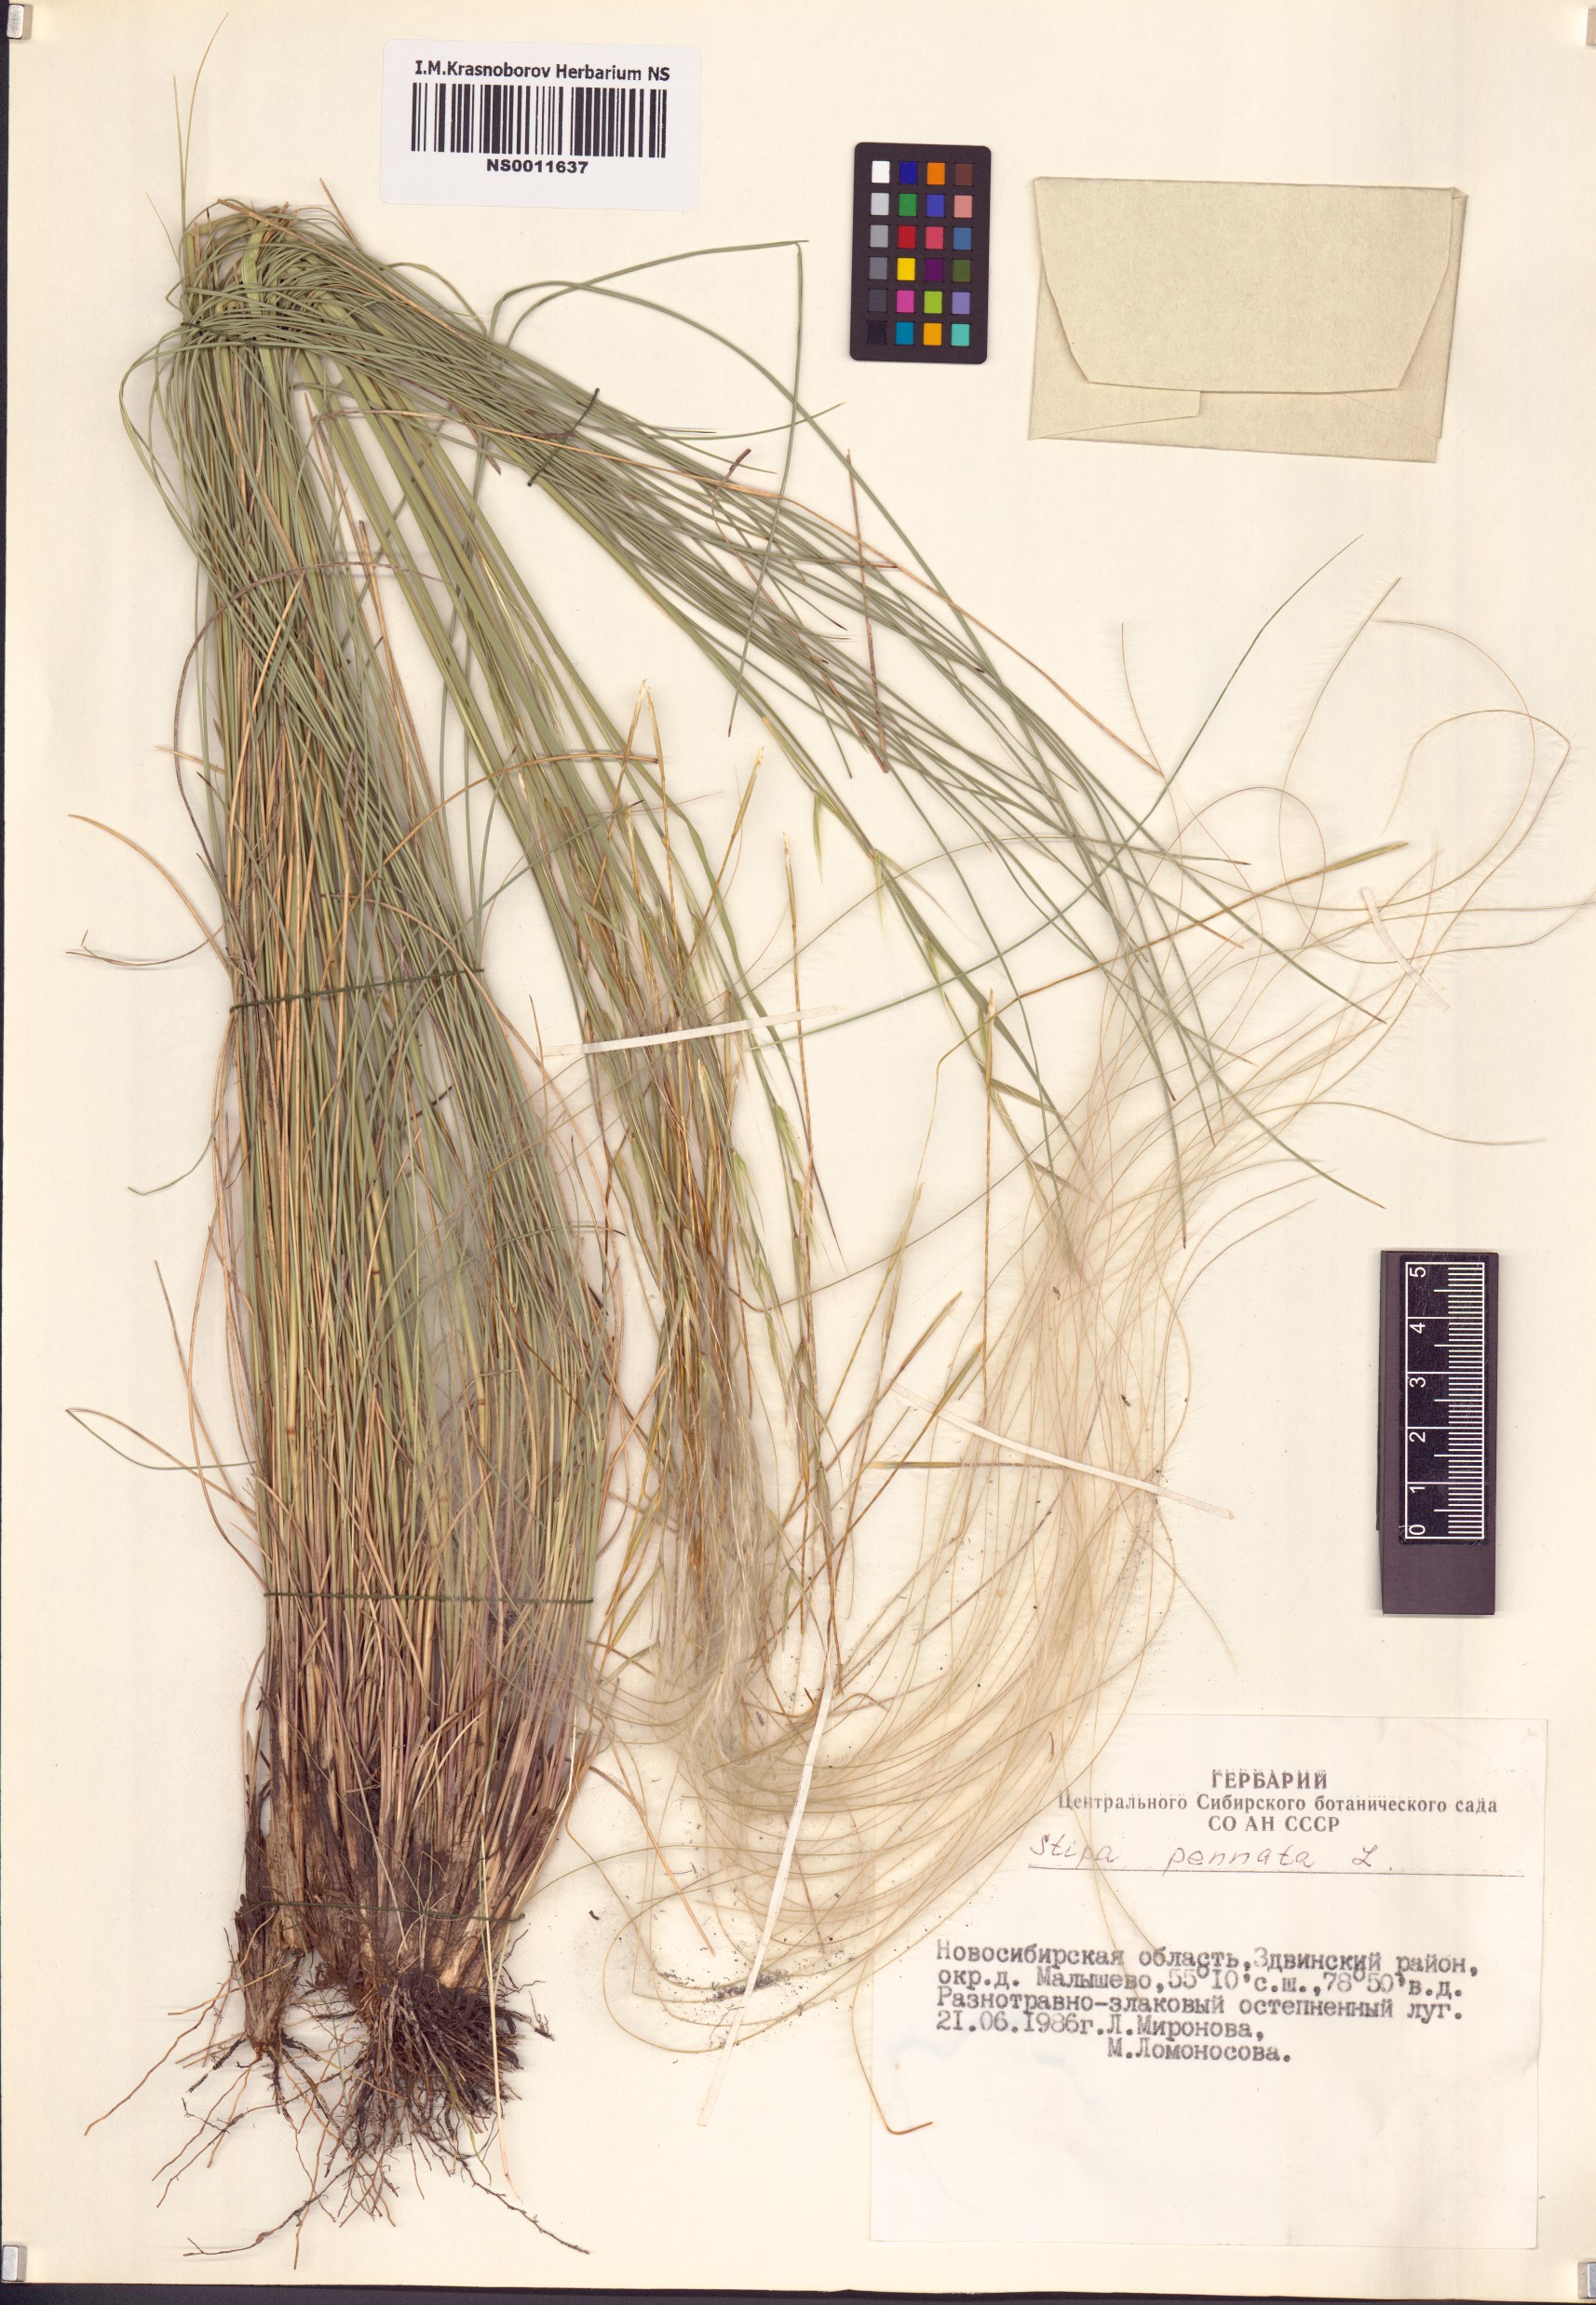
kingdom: Plantae
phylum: Tracheophyta
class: Liliopsida
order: Poales
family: Poaceae
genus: Stipa
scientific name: Stipa pennata
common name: European feather grass
